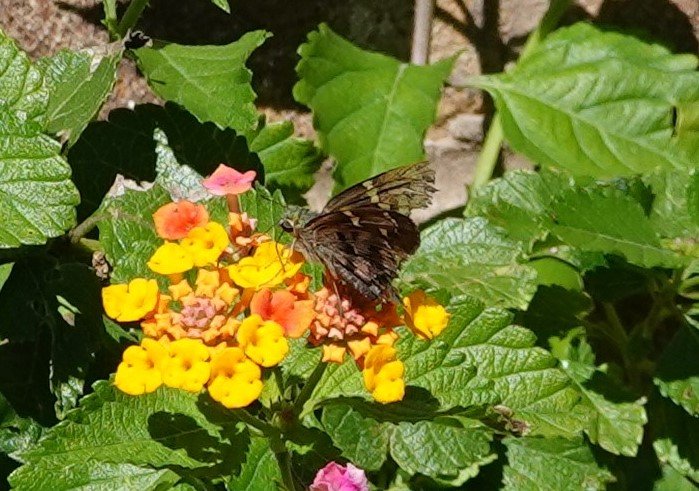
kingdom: Animalia
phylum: Arthropoda
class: Insecta
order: Lepidoptera
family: Hesperiidae
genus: Urbanus
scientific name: Urbanus proteus
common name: Long-tailed Skipper
